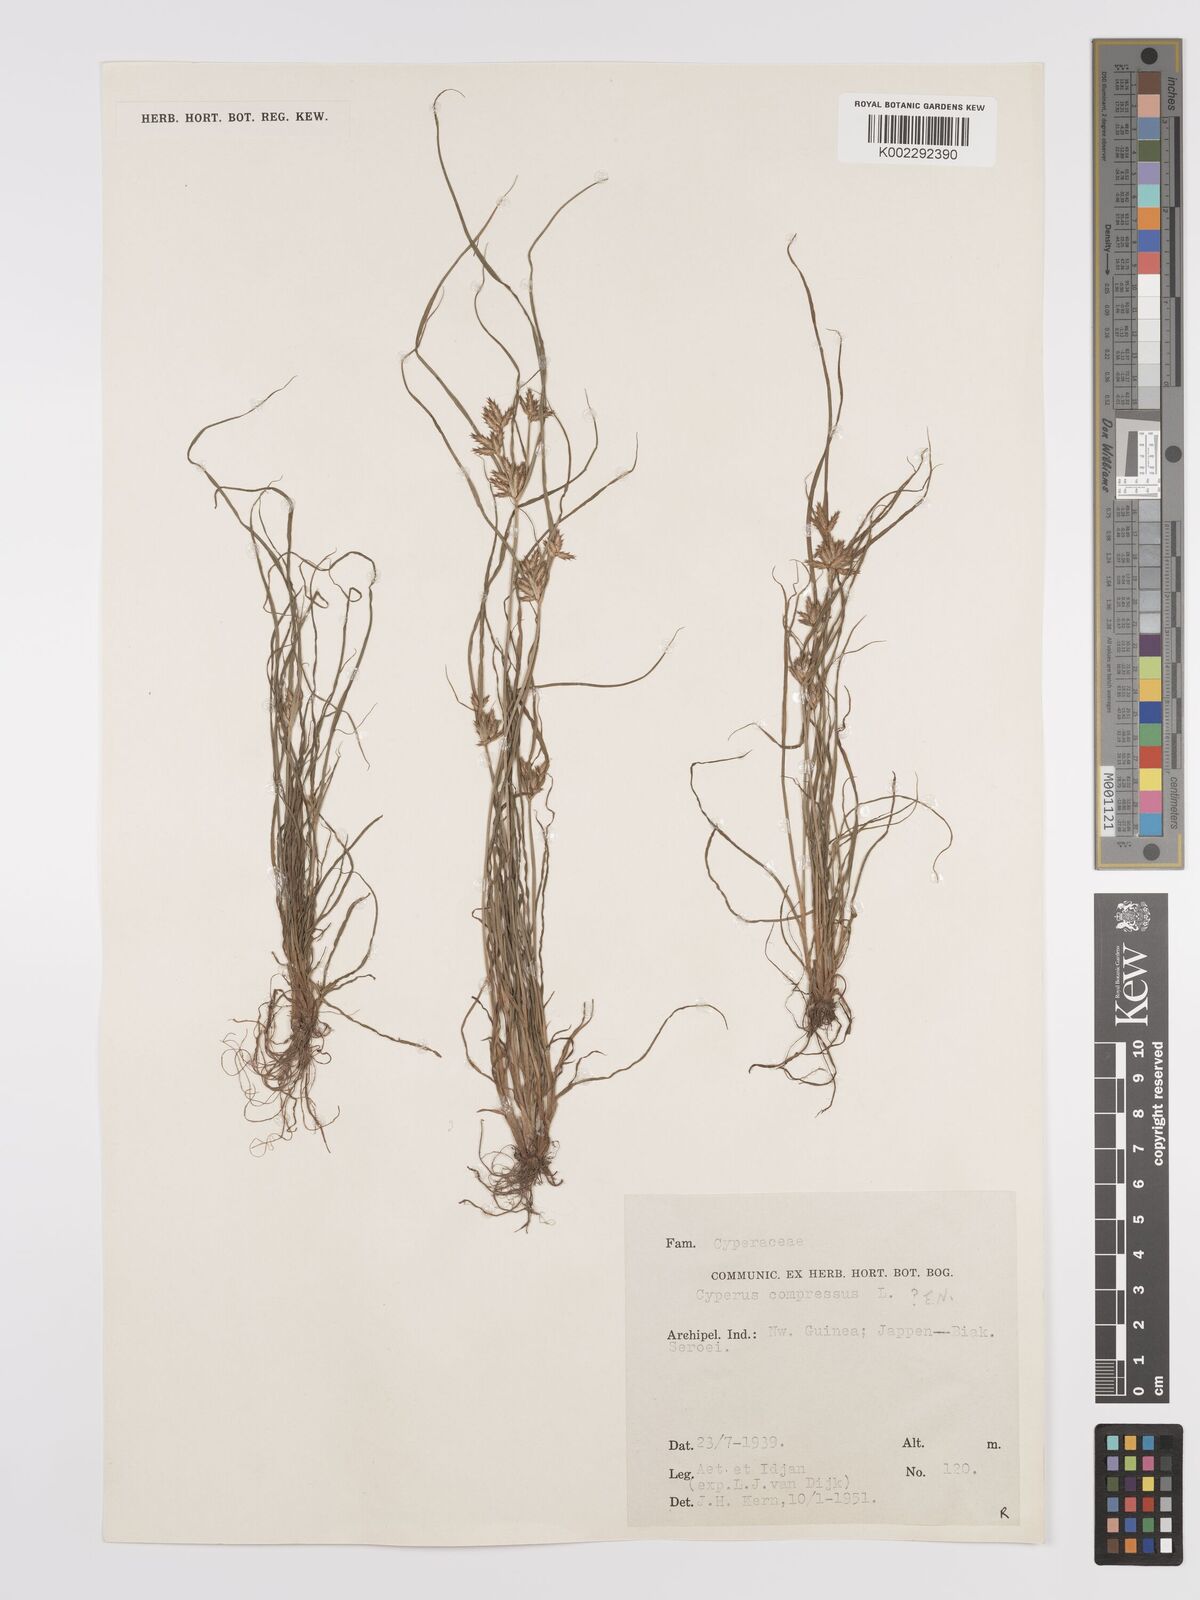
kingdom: Plantae
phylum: Tracheophyta
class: Liliopsida
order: Poales
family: Cyperaceae
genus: Cyperus
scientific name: Cyperus compressus
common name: Poorland flatsedge
